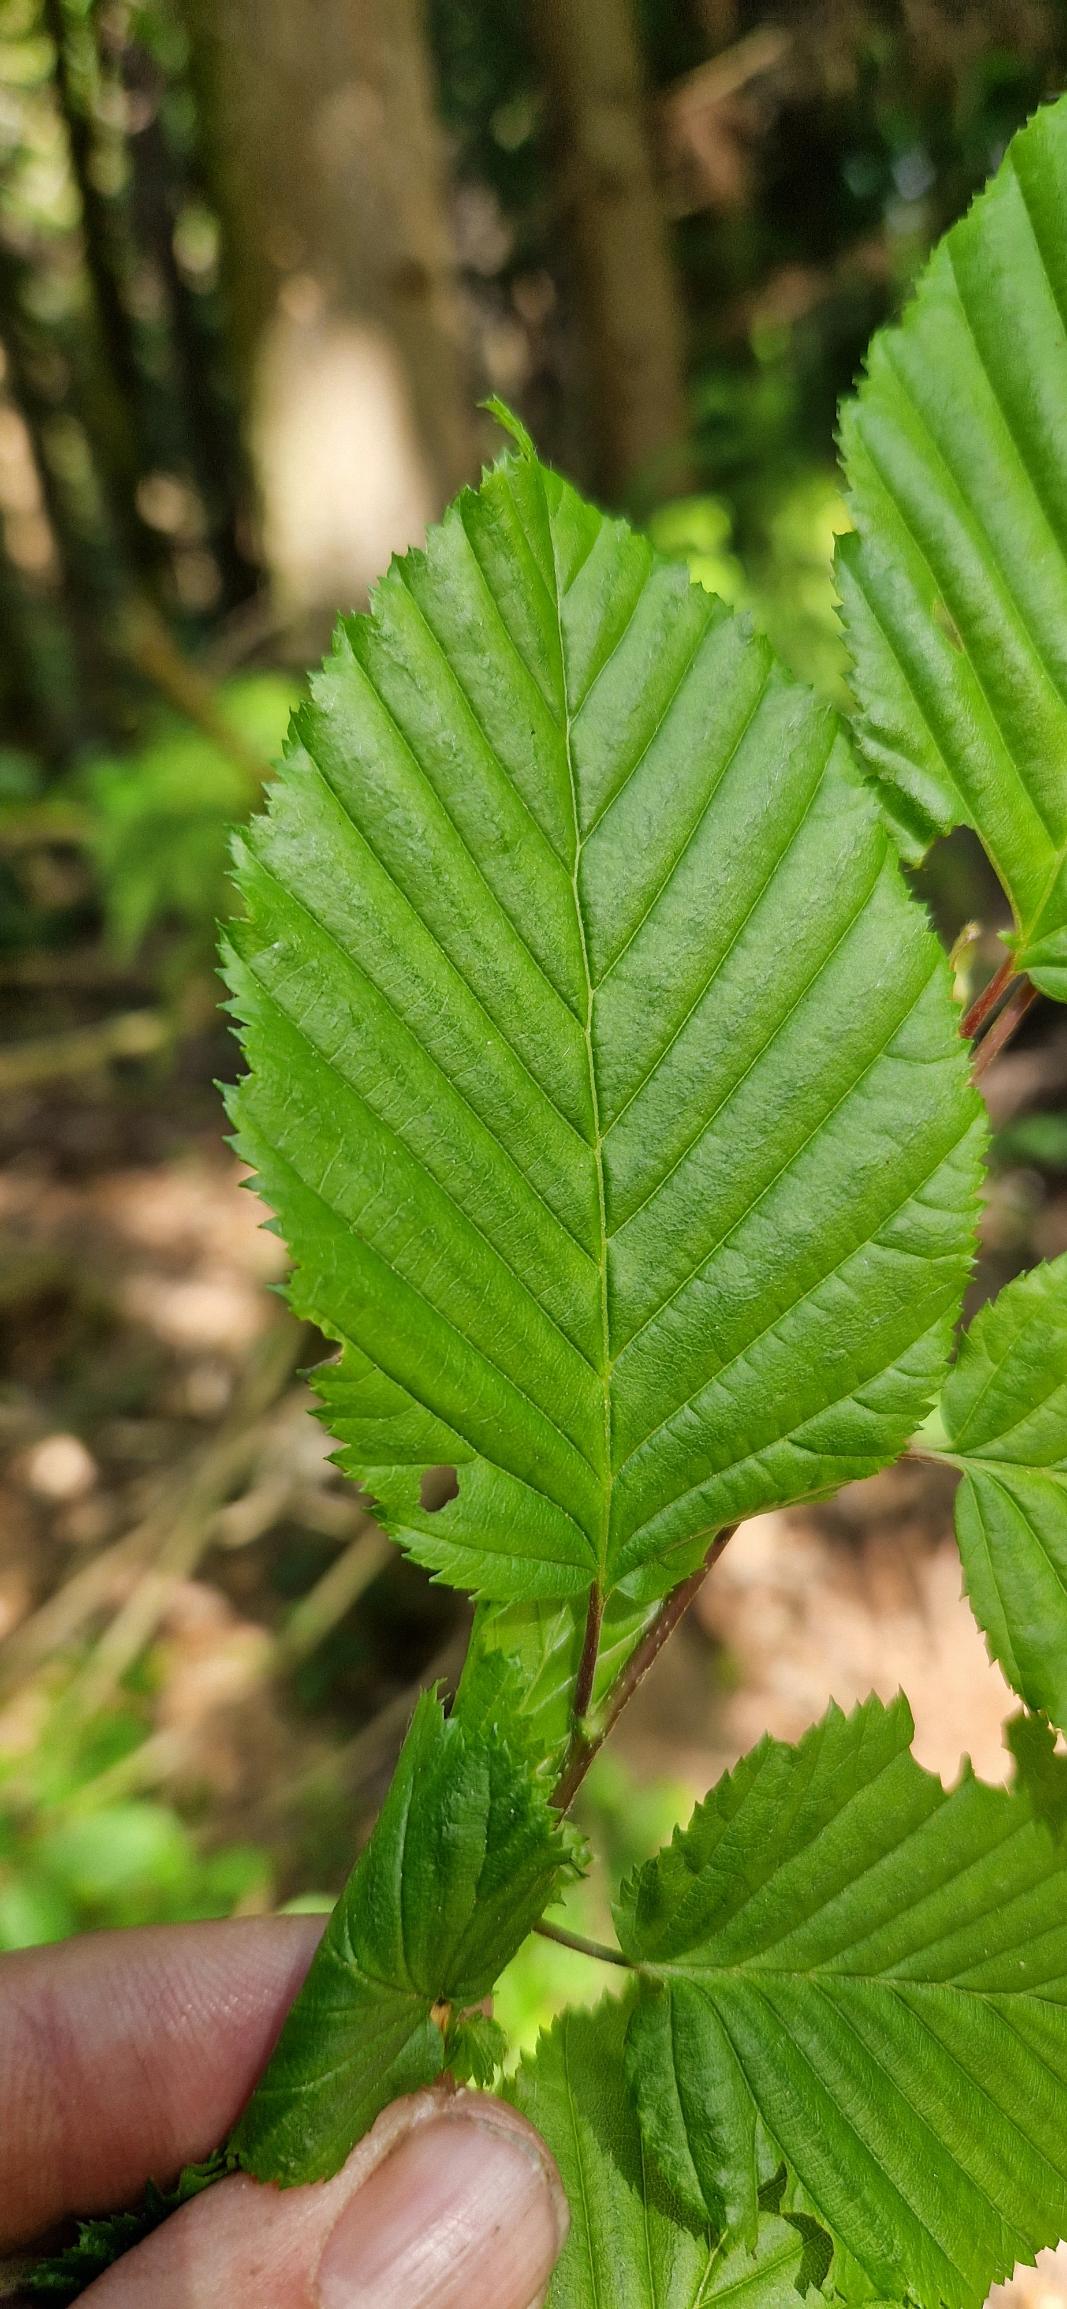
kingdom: Plantae
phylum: Tracheophyta
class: Magnoliopsida
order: Fagales
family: Betulaceae
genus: Carpinus
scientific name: Carpinus betulus
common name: Avnbøg
